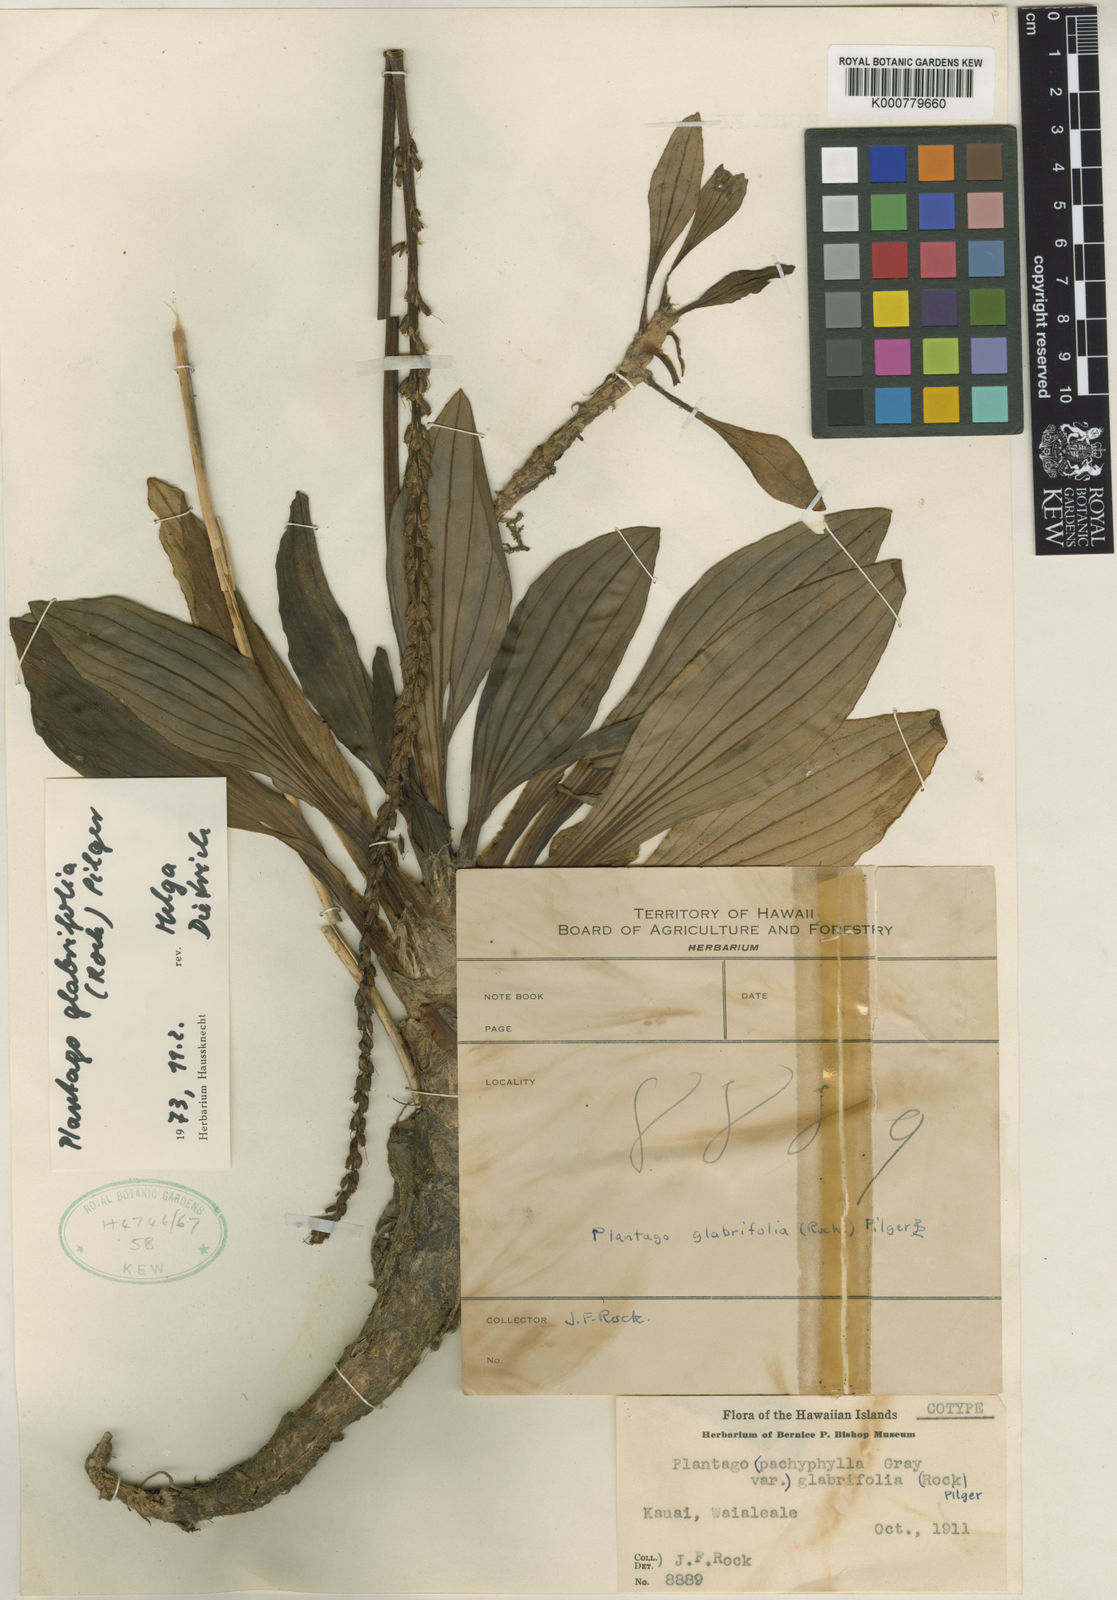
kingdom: Plantae
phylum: Tracheophyta
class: Magnoliopsida
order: Lamiales
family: Plantaginaceae
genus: Plantago
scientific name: Plantago
